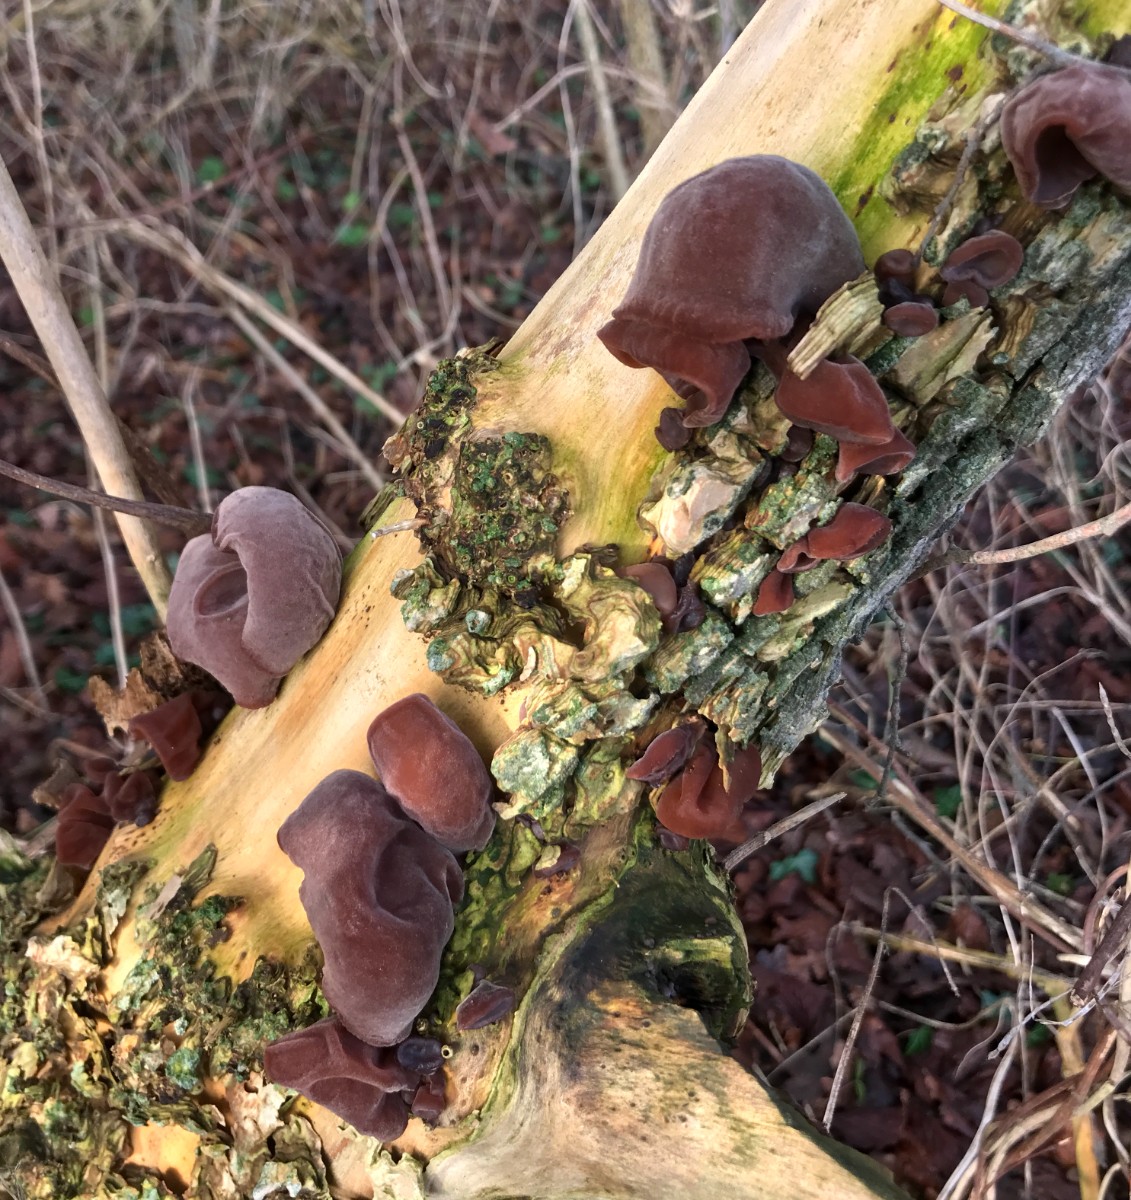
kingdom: Fungi
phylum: Basidiomycota
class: Agaricomycetes
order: Auriculariales
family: Auriculariaceae
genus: Auricularia
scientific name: Auricularia auricula-judae
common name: almindelig judasøre
